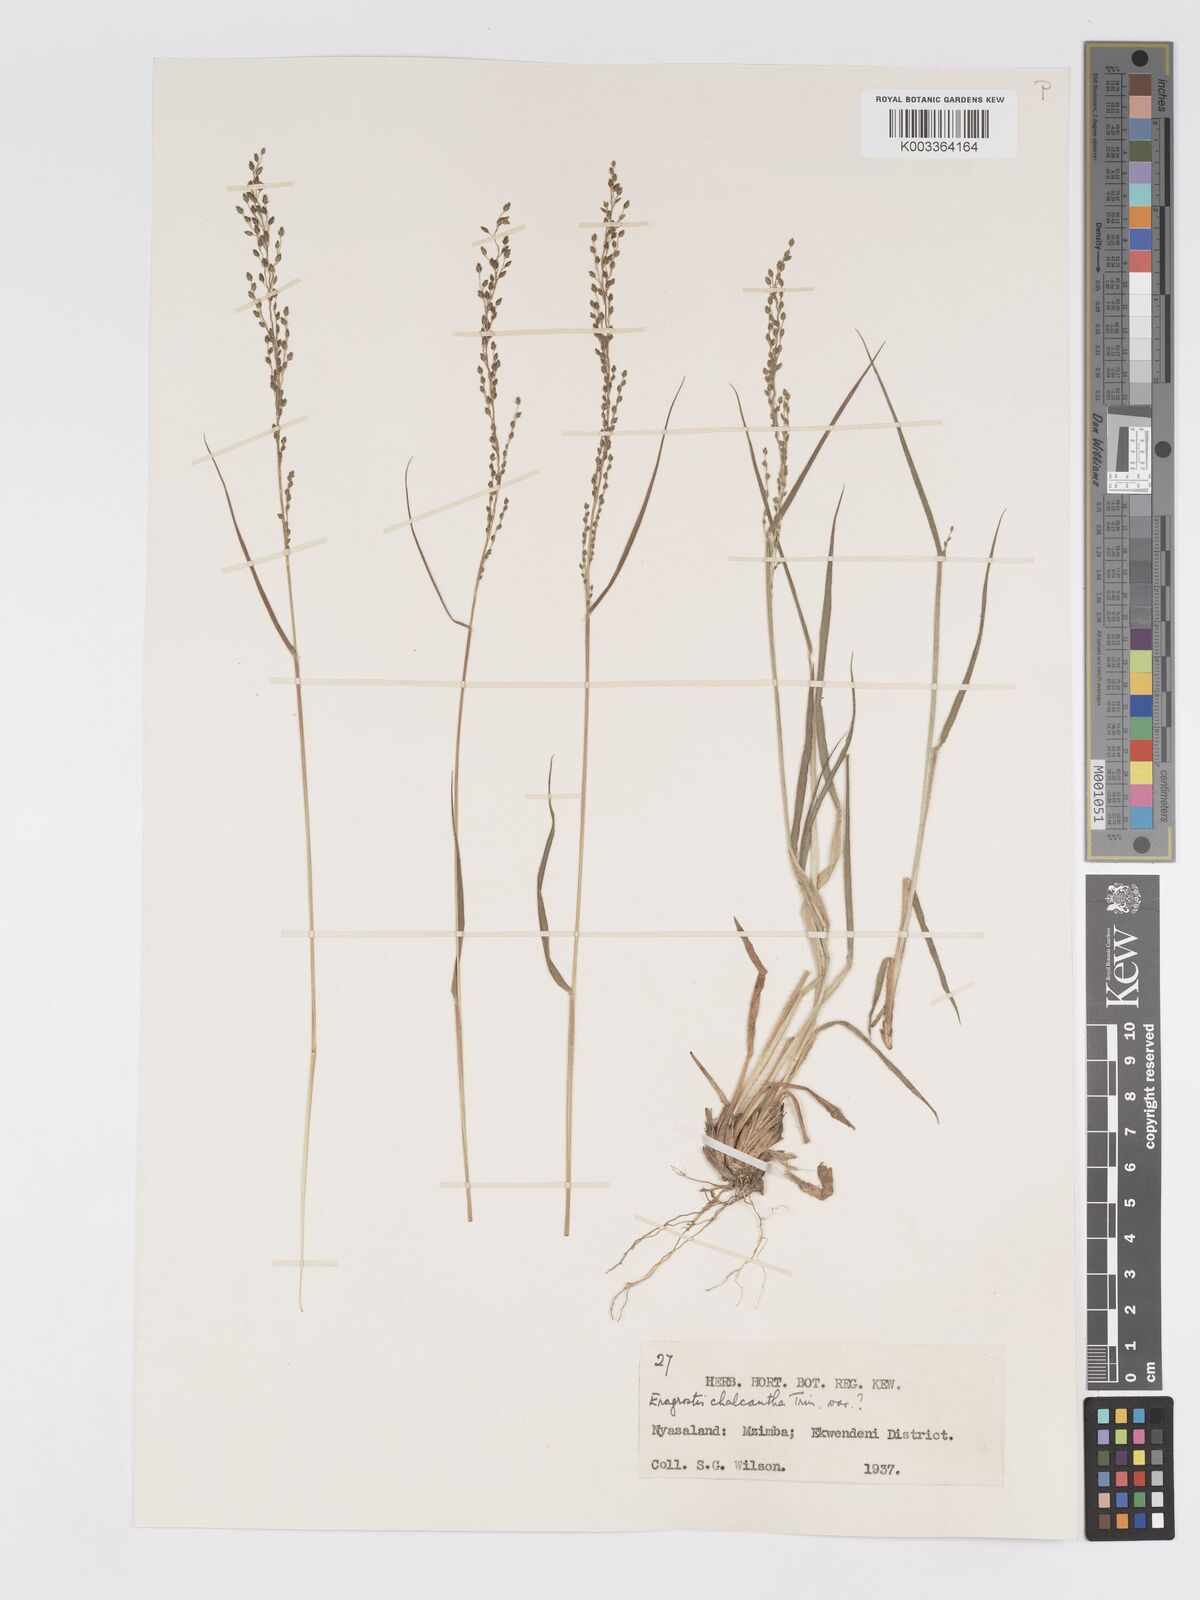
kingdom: Plantae
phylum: Tracheophyta
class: Liliopsida
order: Poales
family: Poaceae
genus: Eragrostis
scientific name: Eragrostis racemosa
